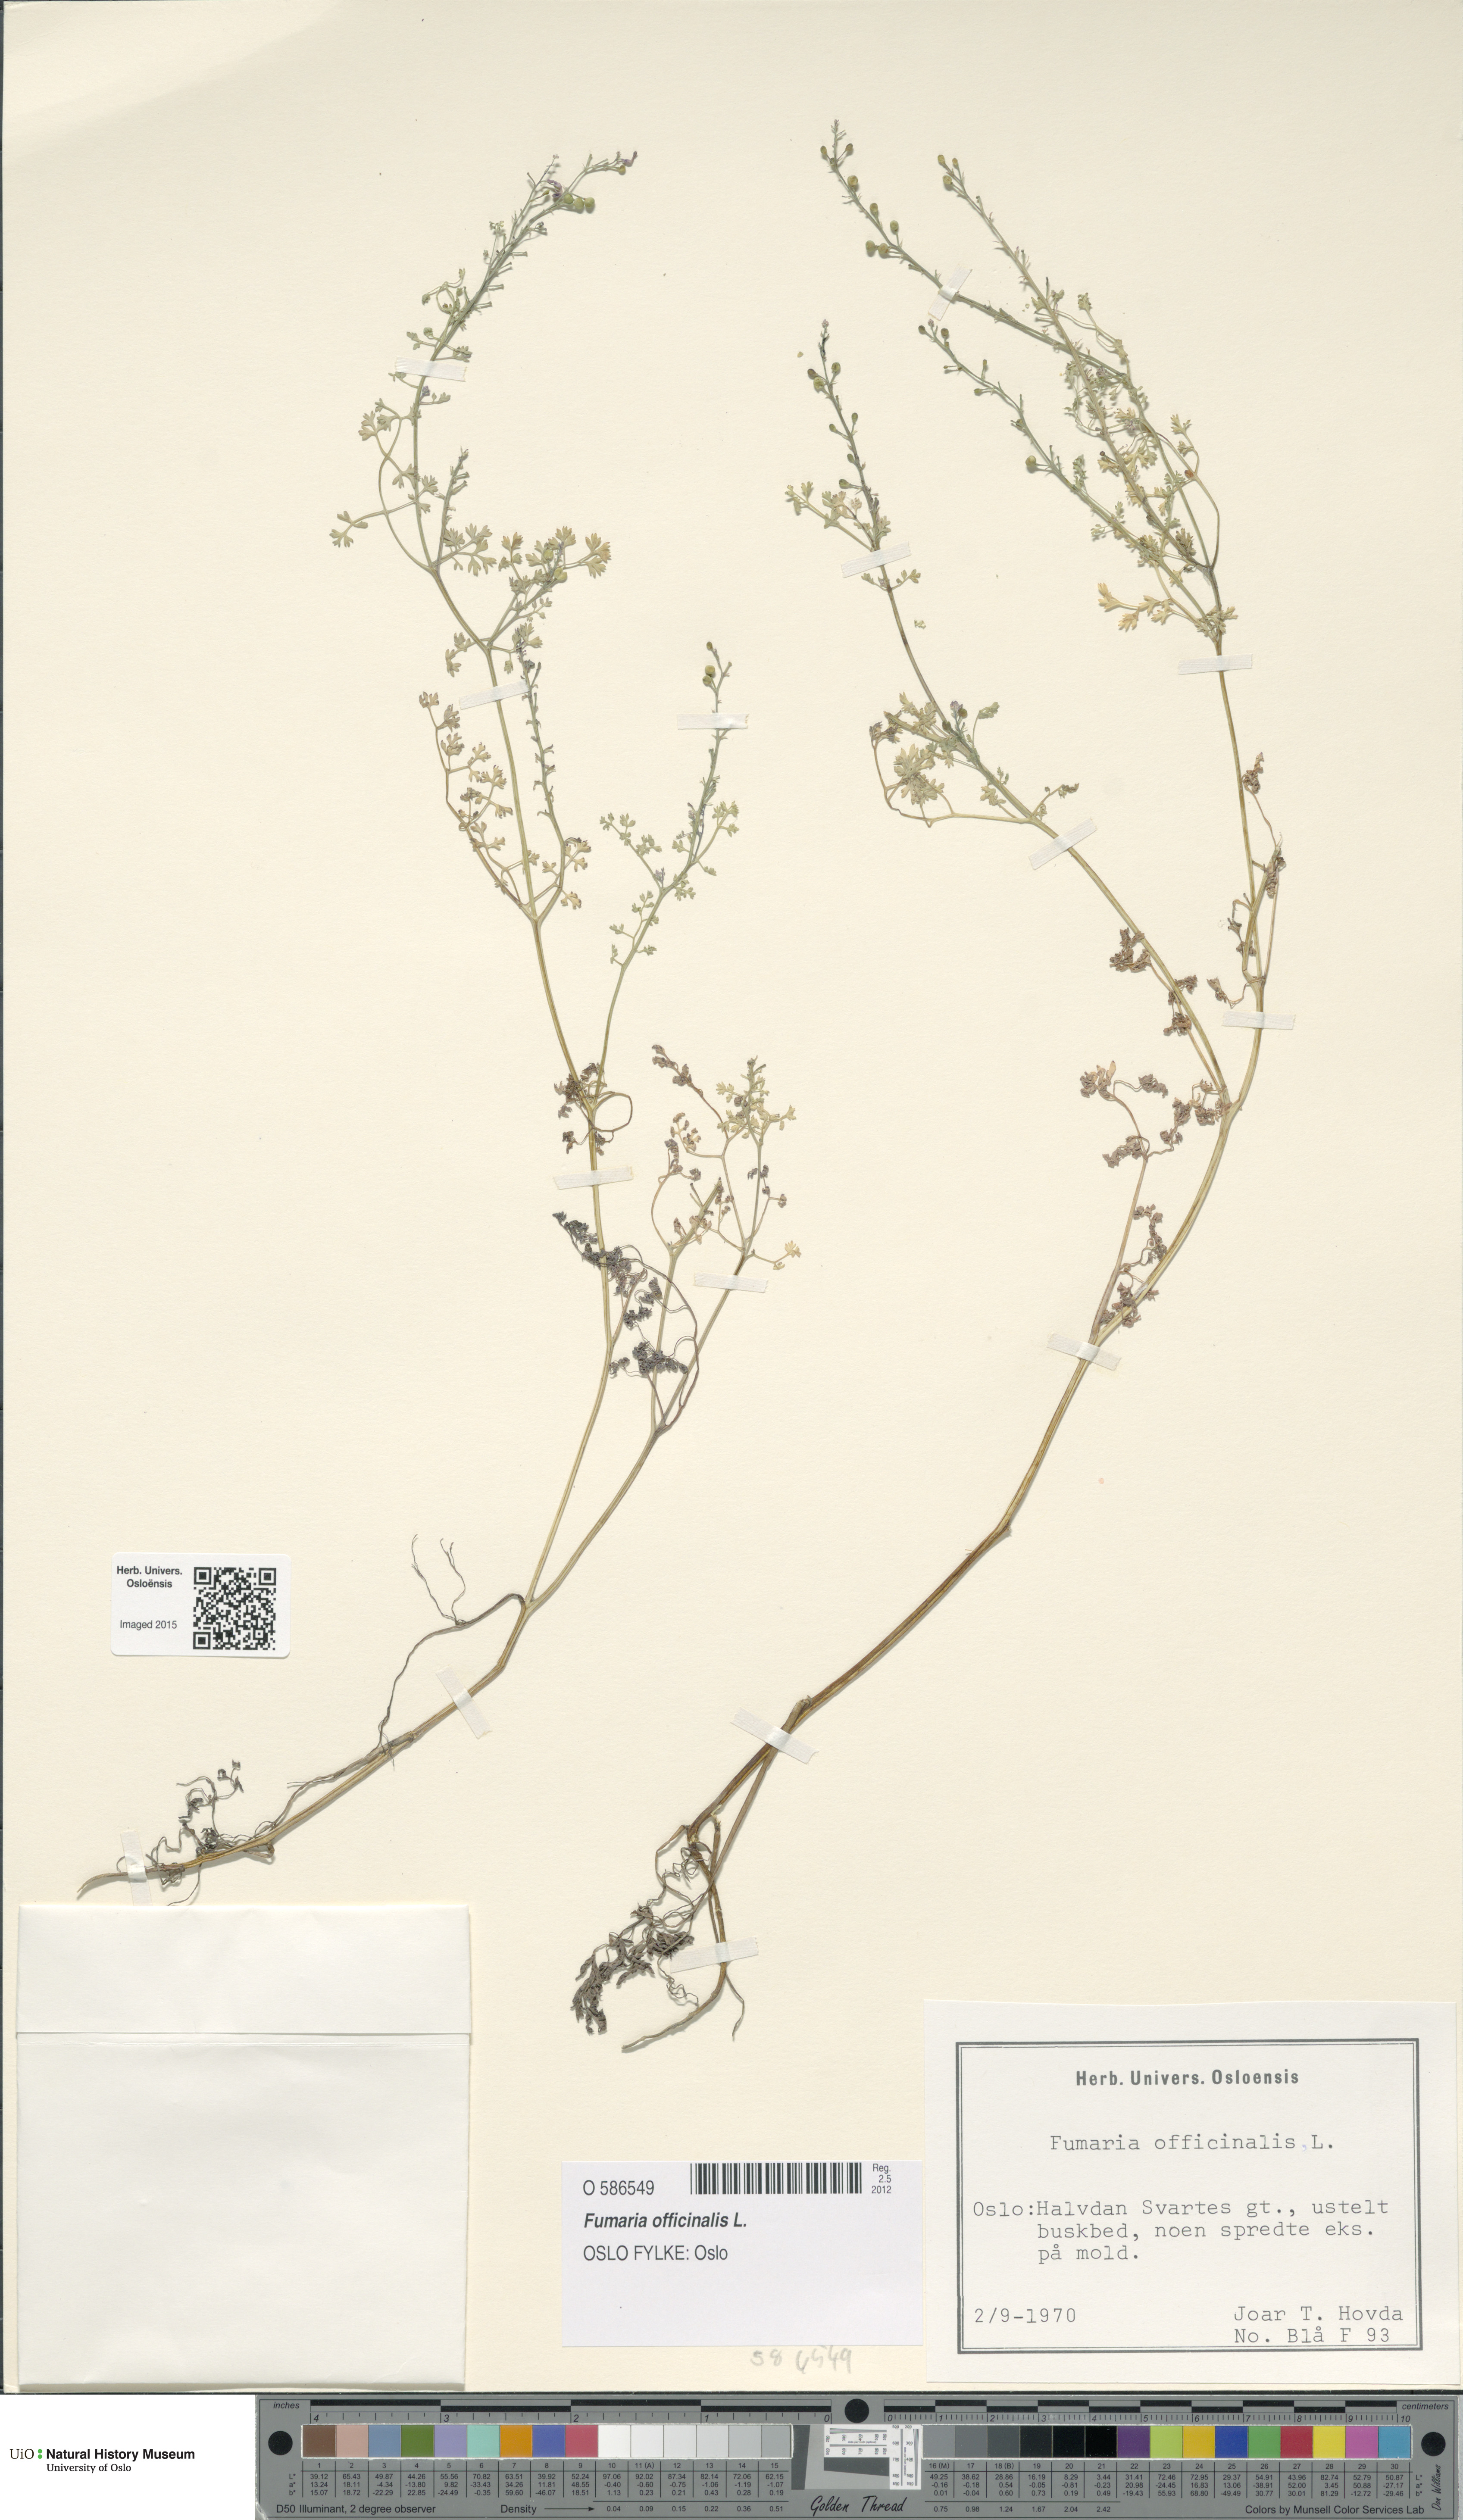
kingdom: Plantae
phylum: Tracheophyta
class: Magnoliopsida
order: Ranunculales
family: Papaveraceae
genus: Fumaria
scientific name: Fumaria officinalis
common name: Common fumitory
